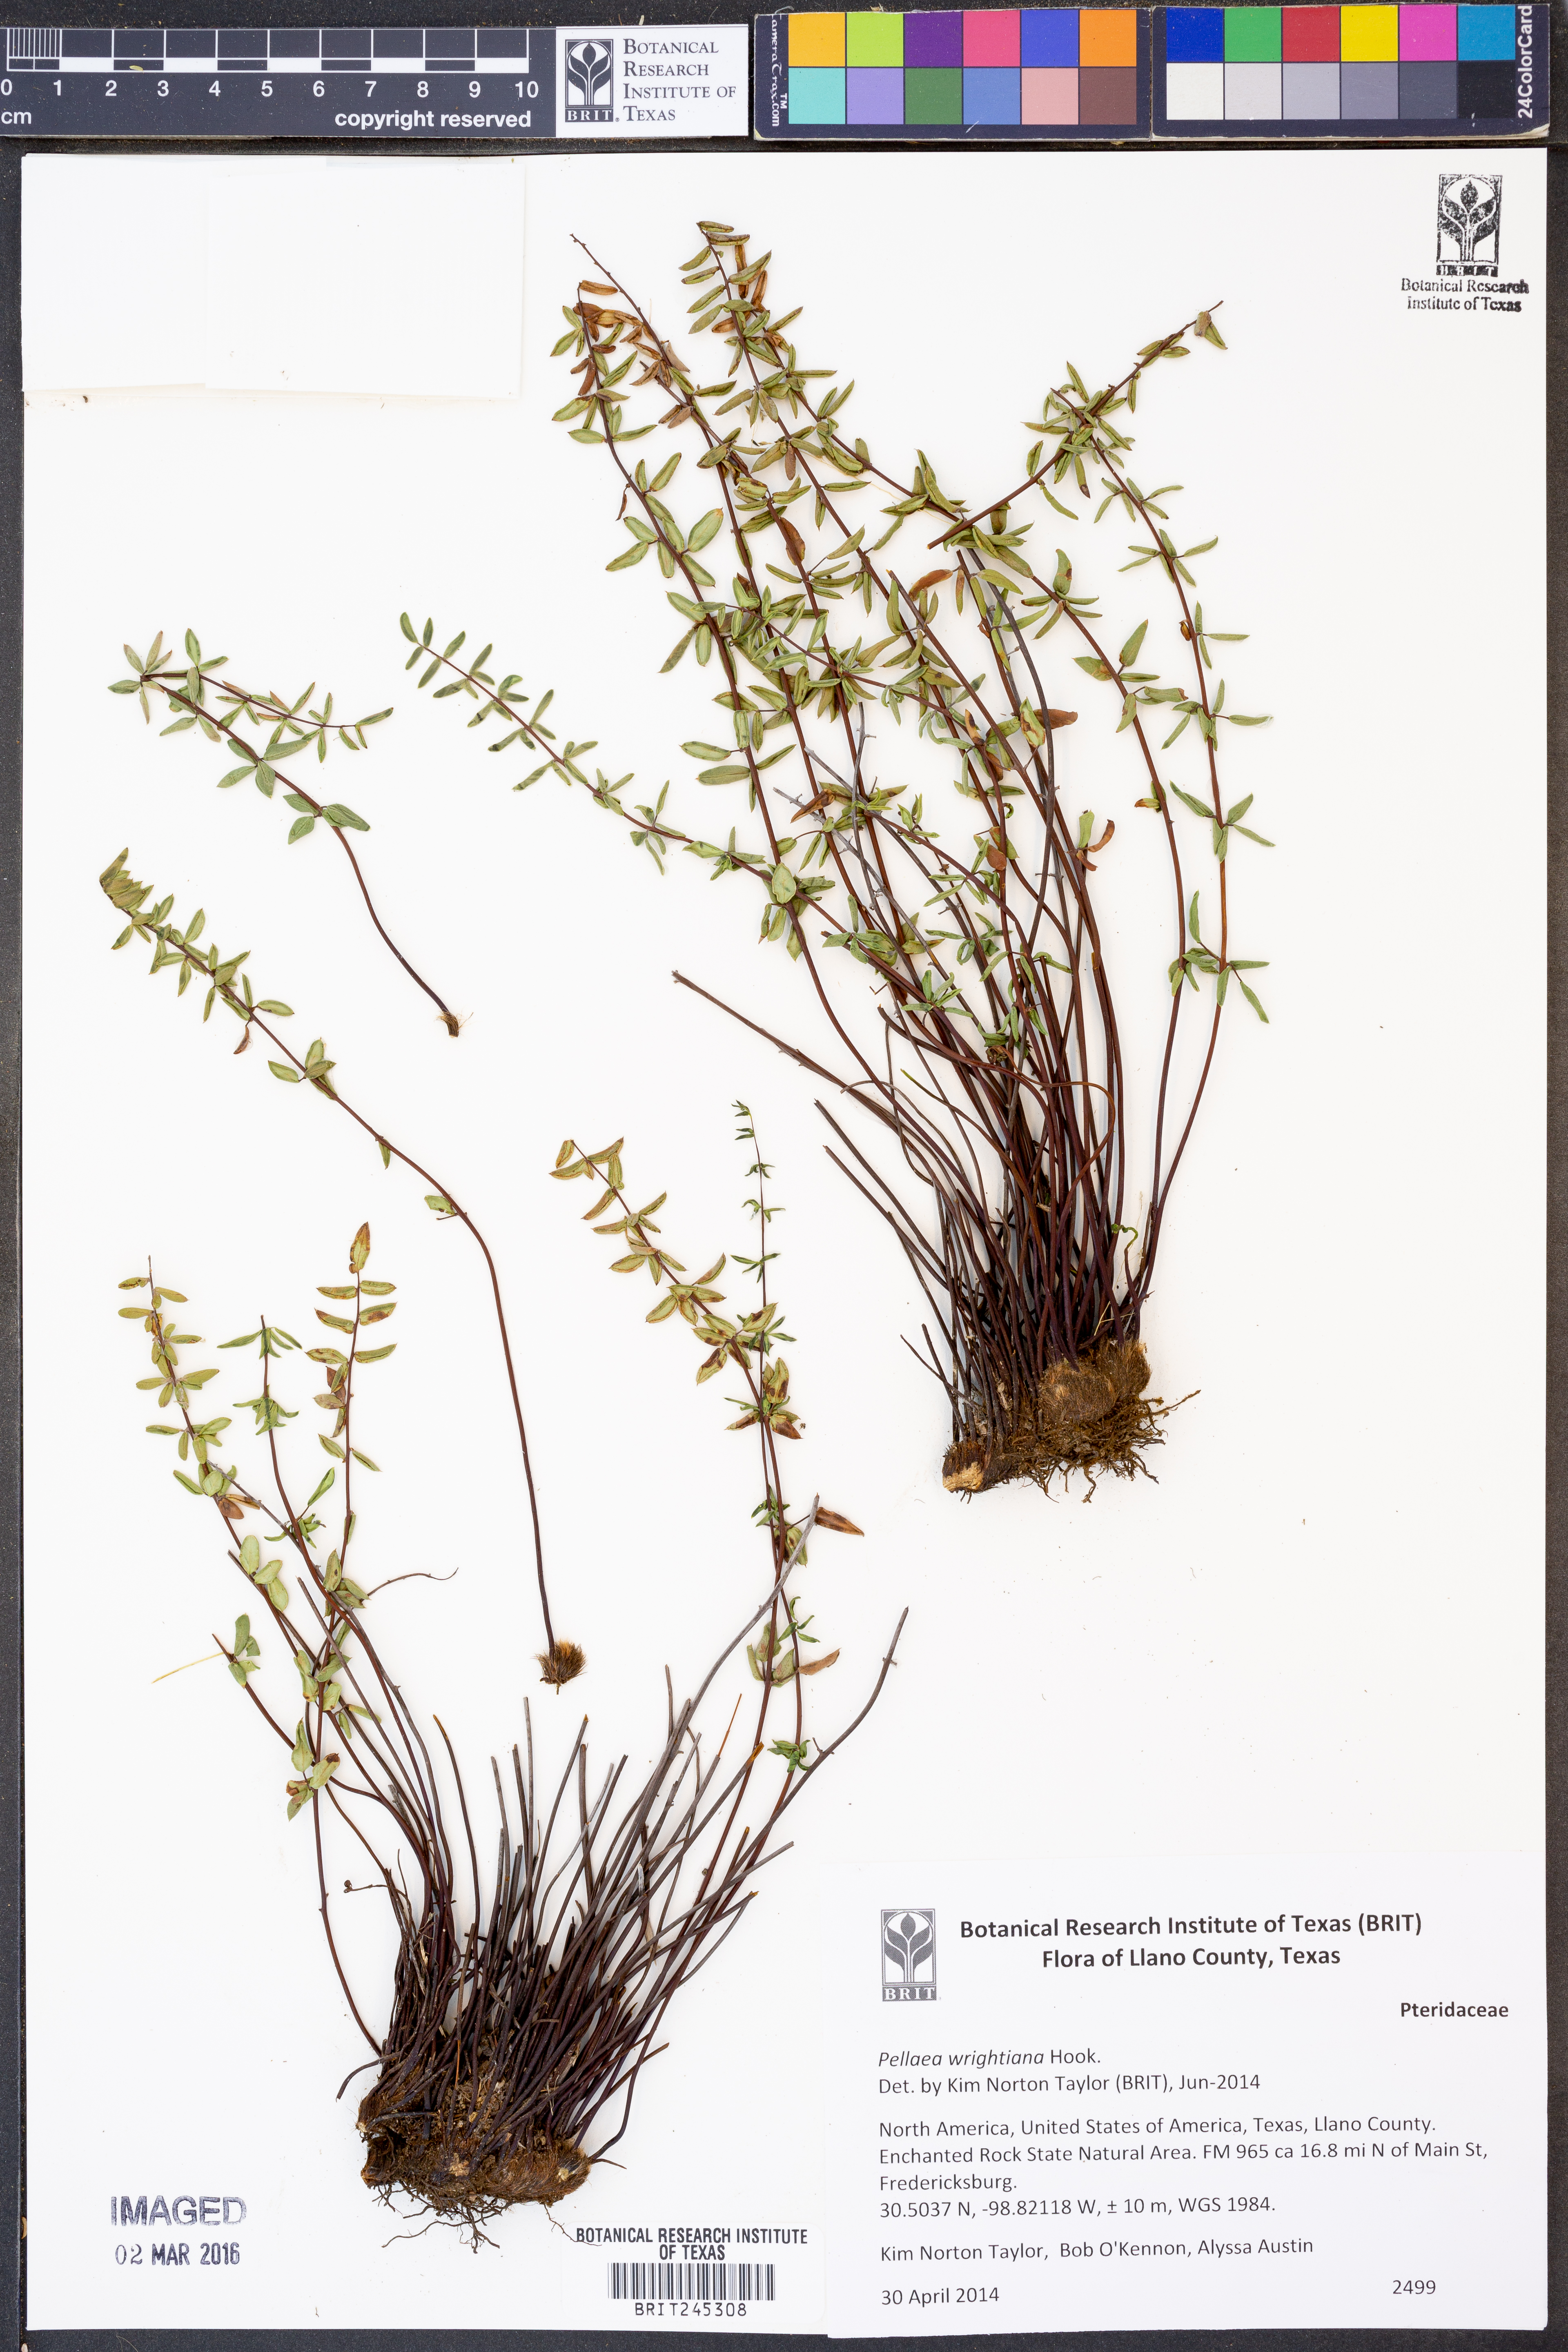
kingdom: Plantae
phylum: Tracheophyta
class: Polypodiopsida
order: Polypodiales
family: Pteridaceae
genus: Pellaea
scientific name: Pellaea wrightiana
